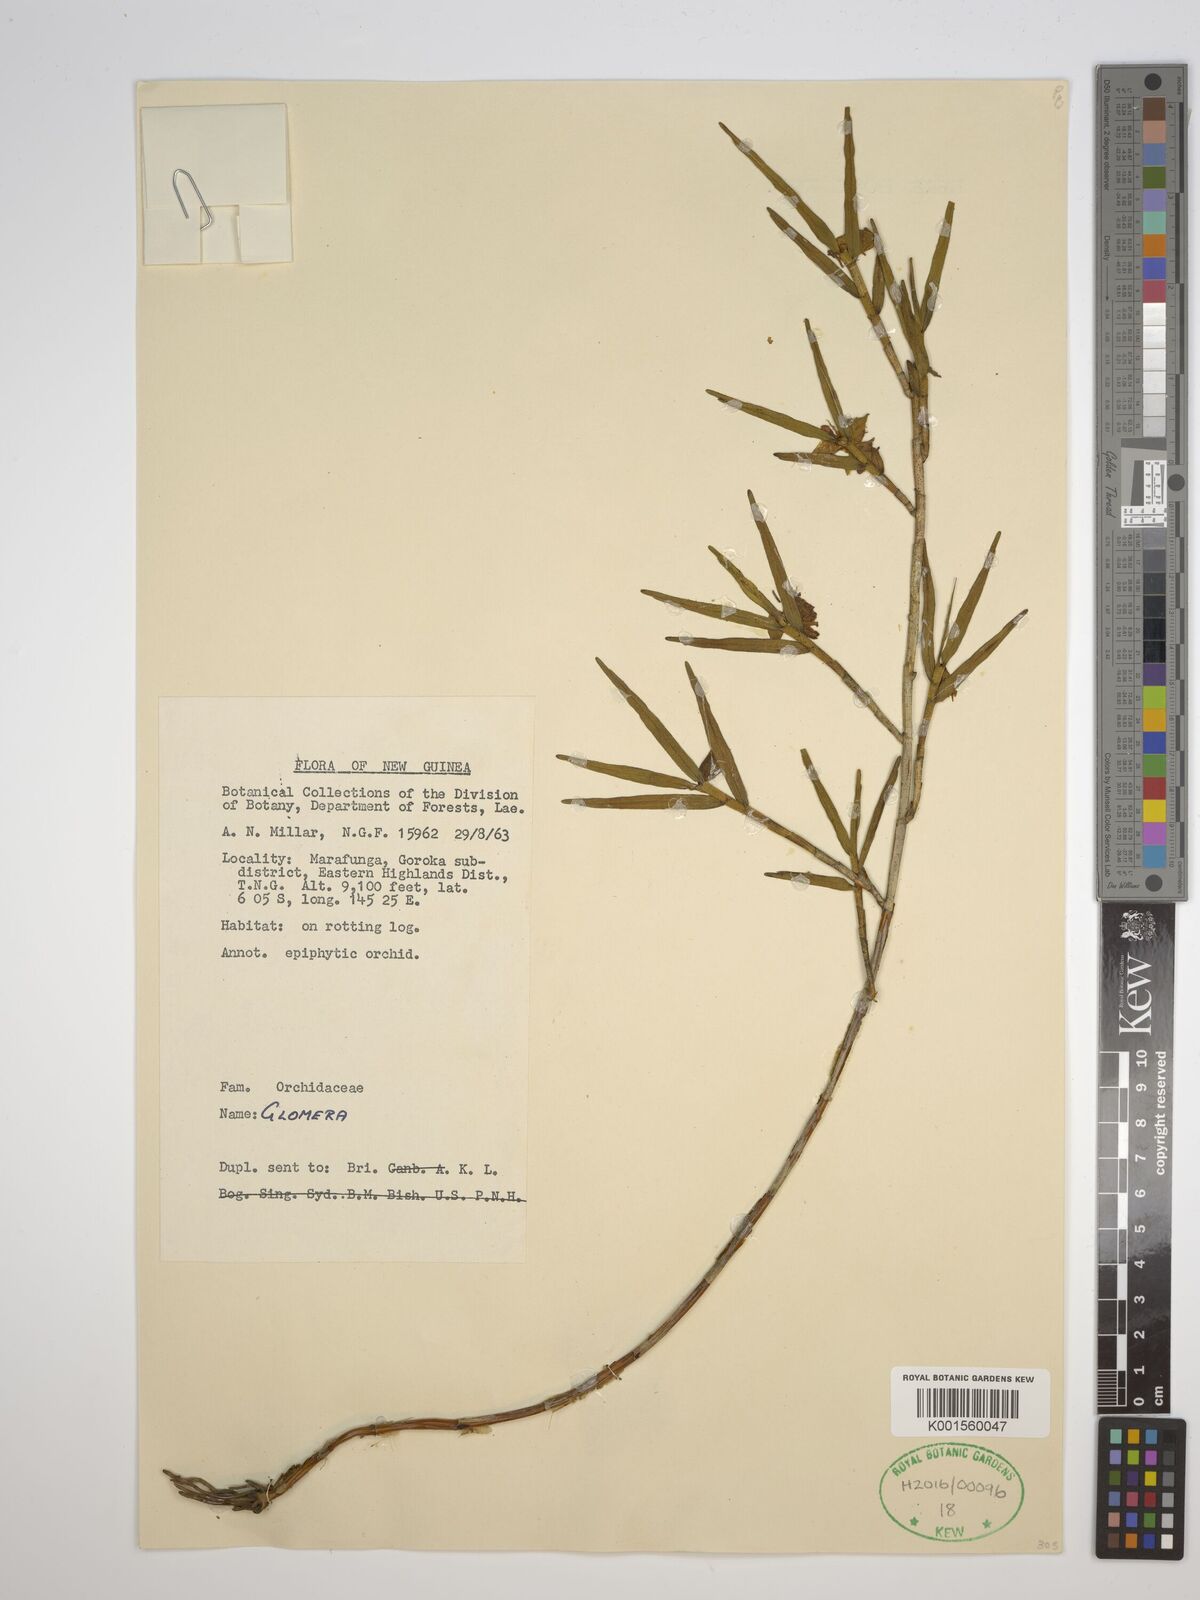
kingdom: Plantae
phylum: Tracheophyta
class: Liliopsida
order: Asparagales
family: Orchidaceae
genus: Glomera
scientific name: Glomera
